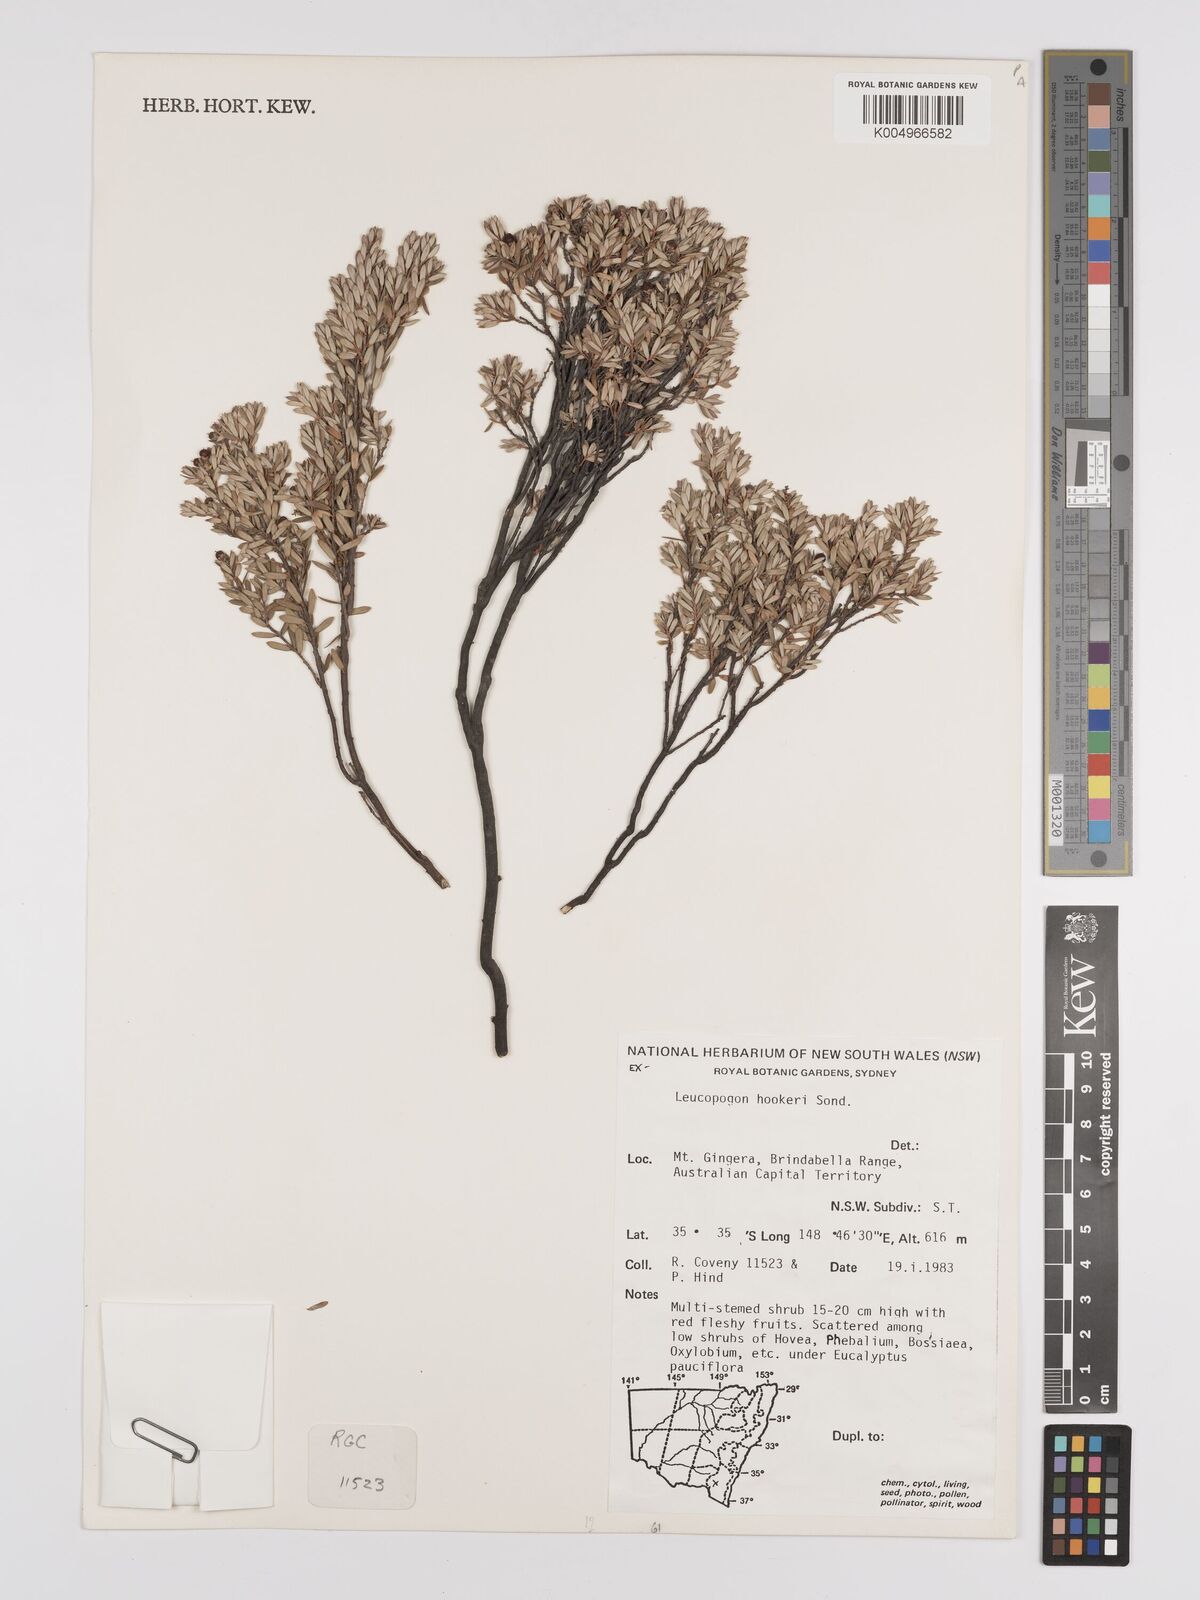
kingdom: Plantae
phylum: Tracheophyta
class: Magnoliopsida
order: Ericales
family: Ericaceae
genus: Acrothamnus
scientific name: Acrothamnus hookeri
